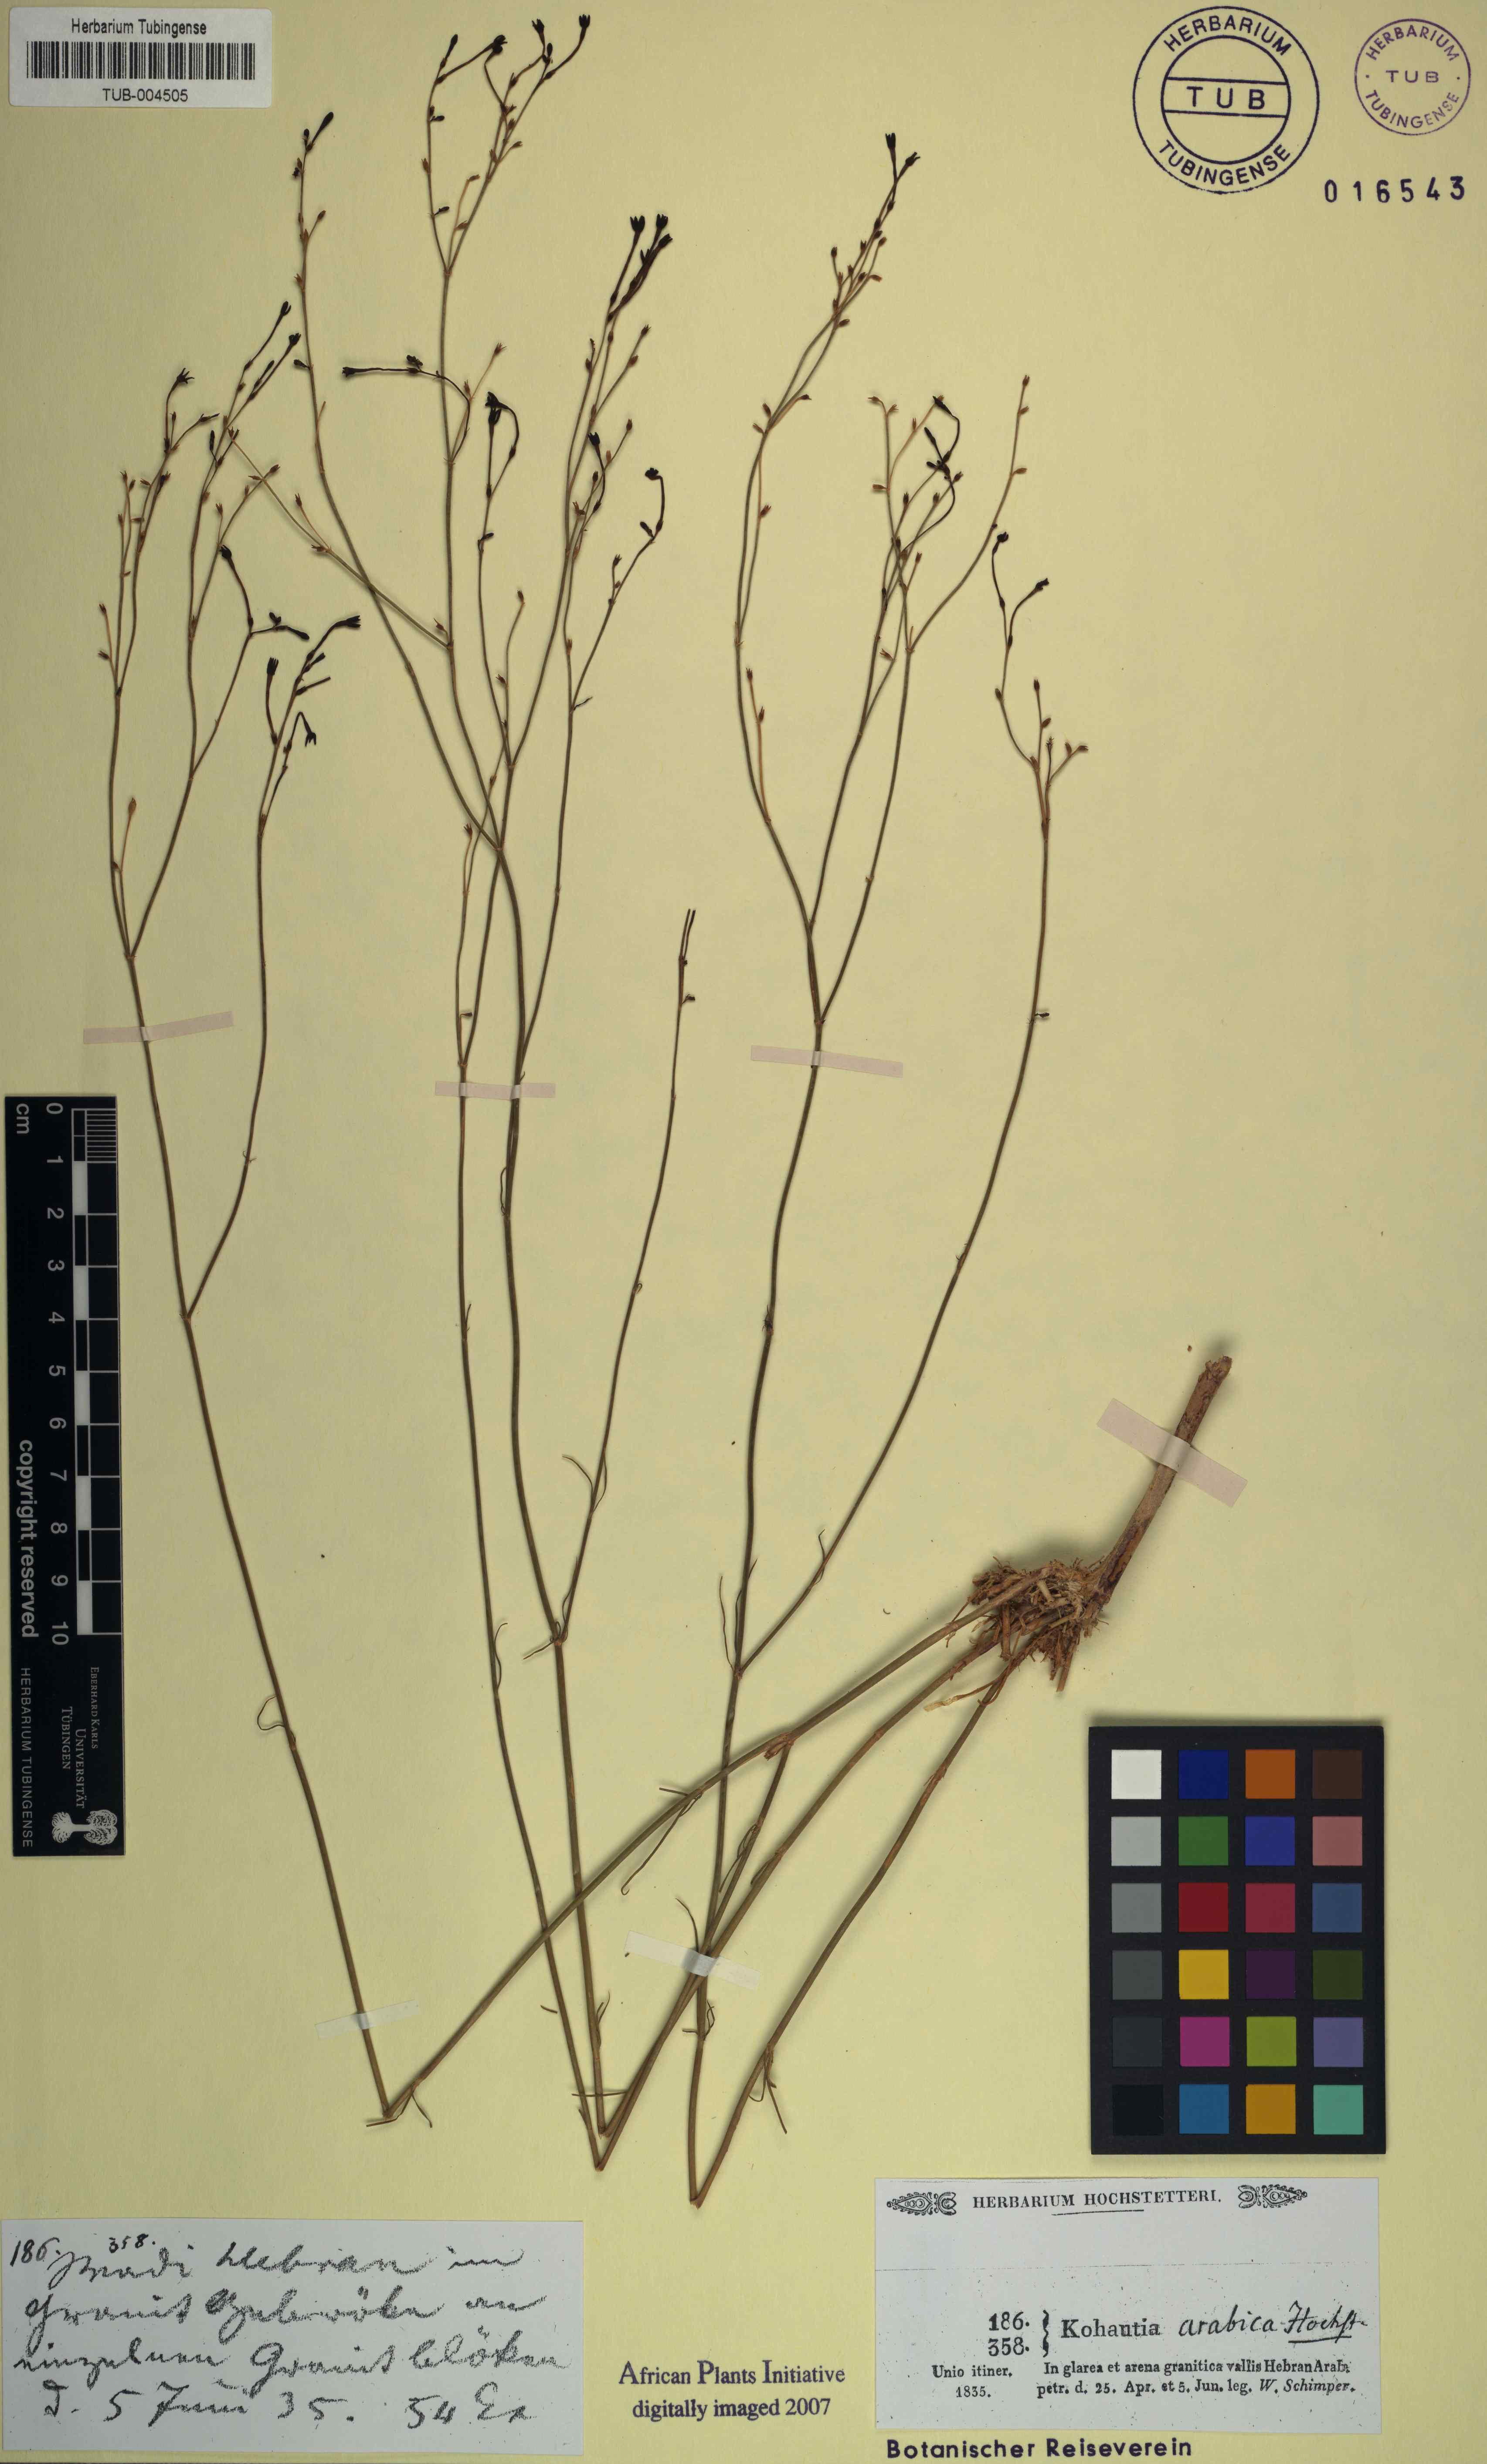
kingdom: Plantae
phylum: Tracheophyta
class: Magnoliopsida
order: Gentianales
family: Rubiaceae
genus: Kohautia
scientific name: Kohautia caespitosa
